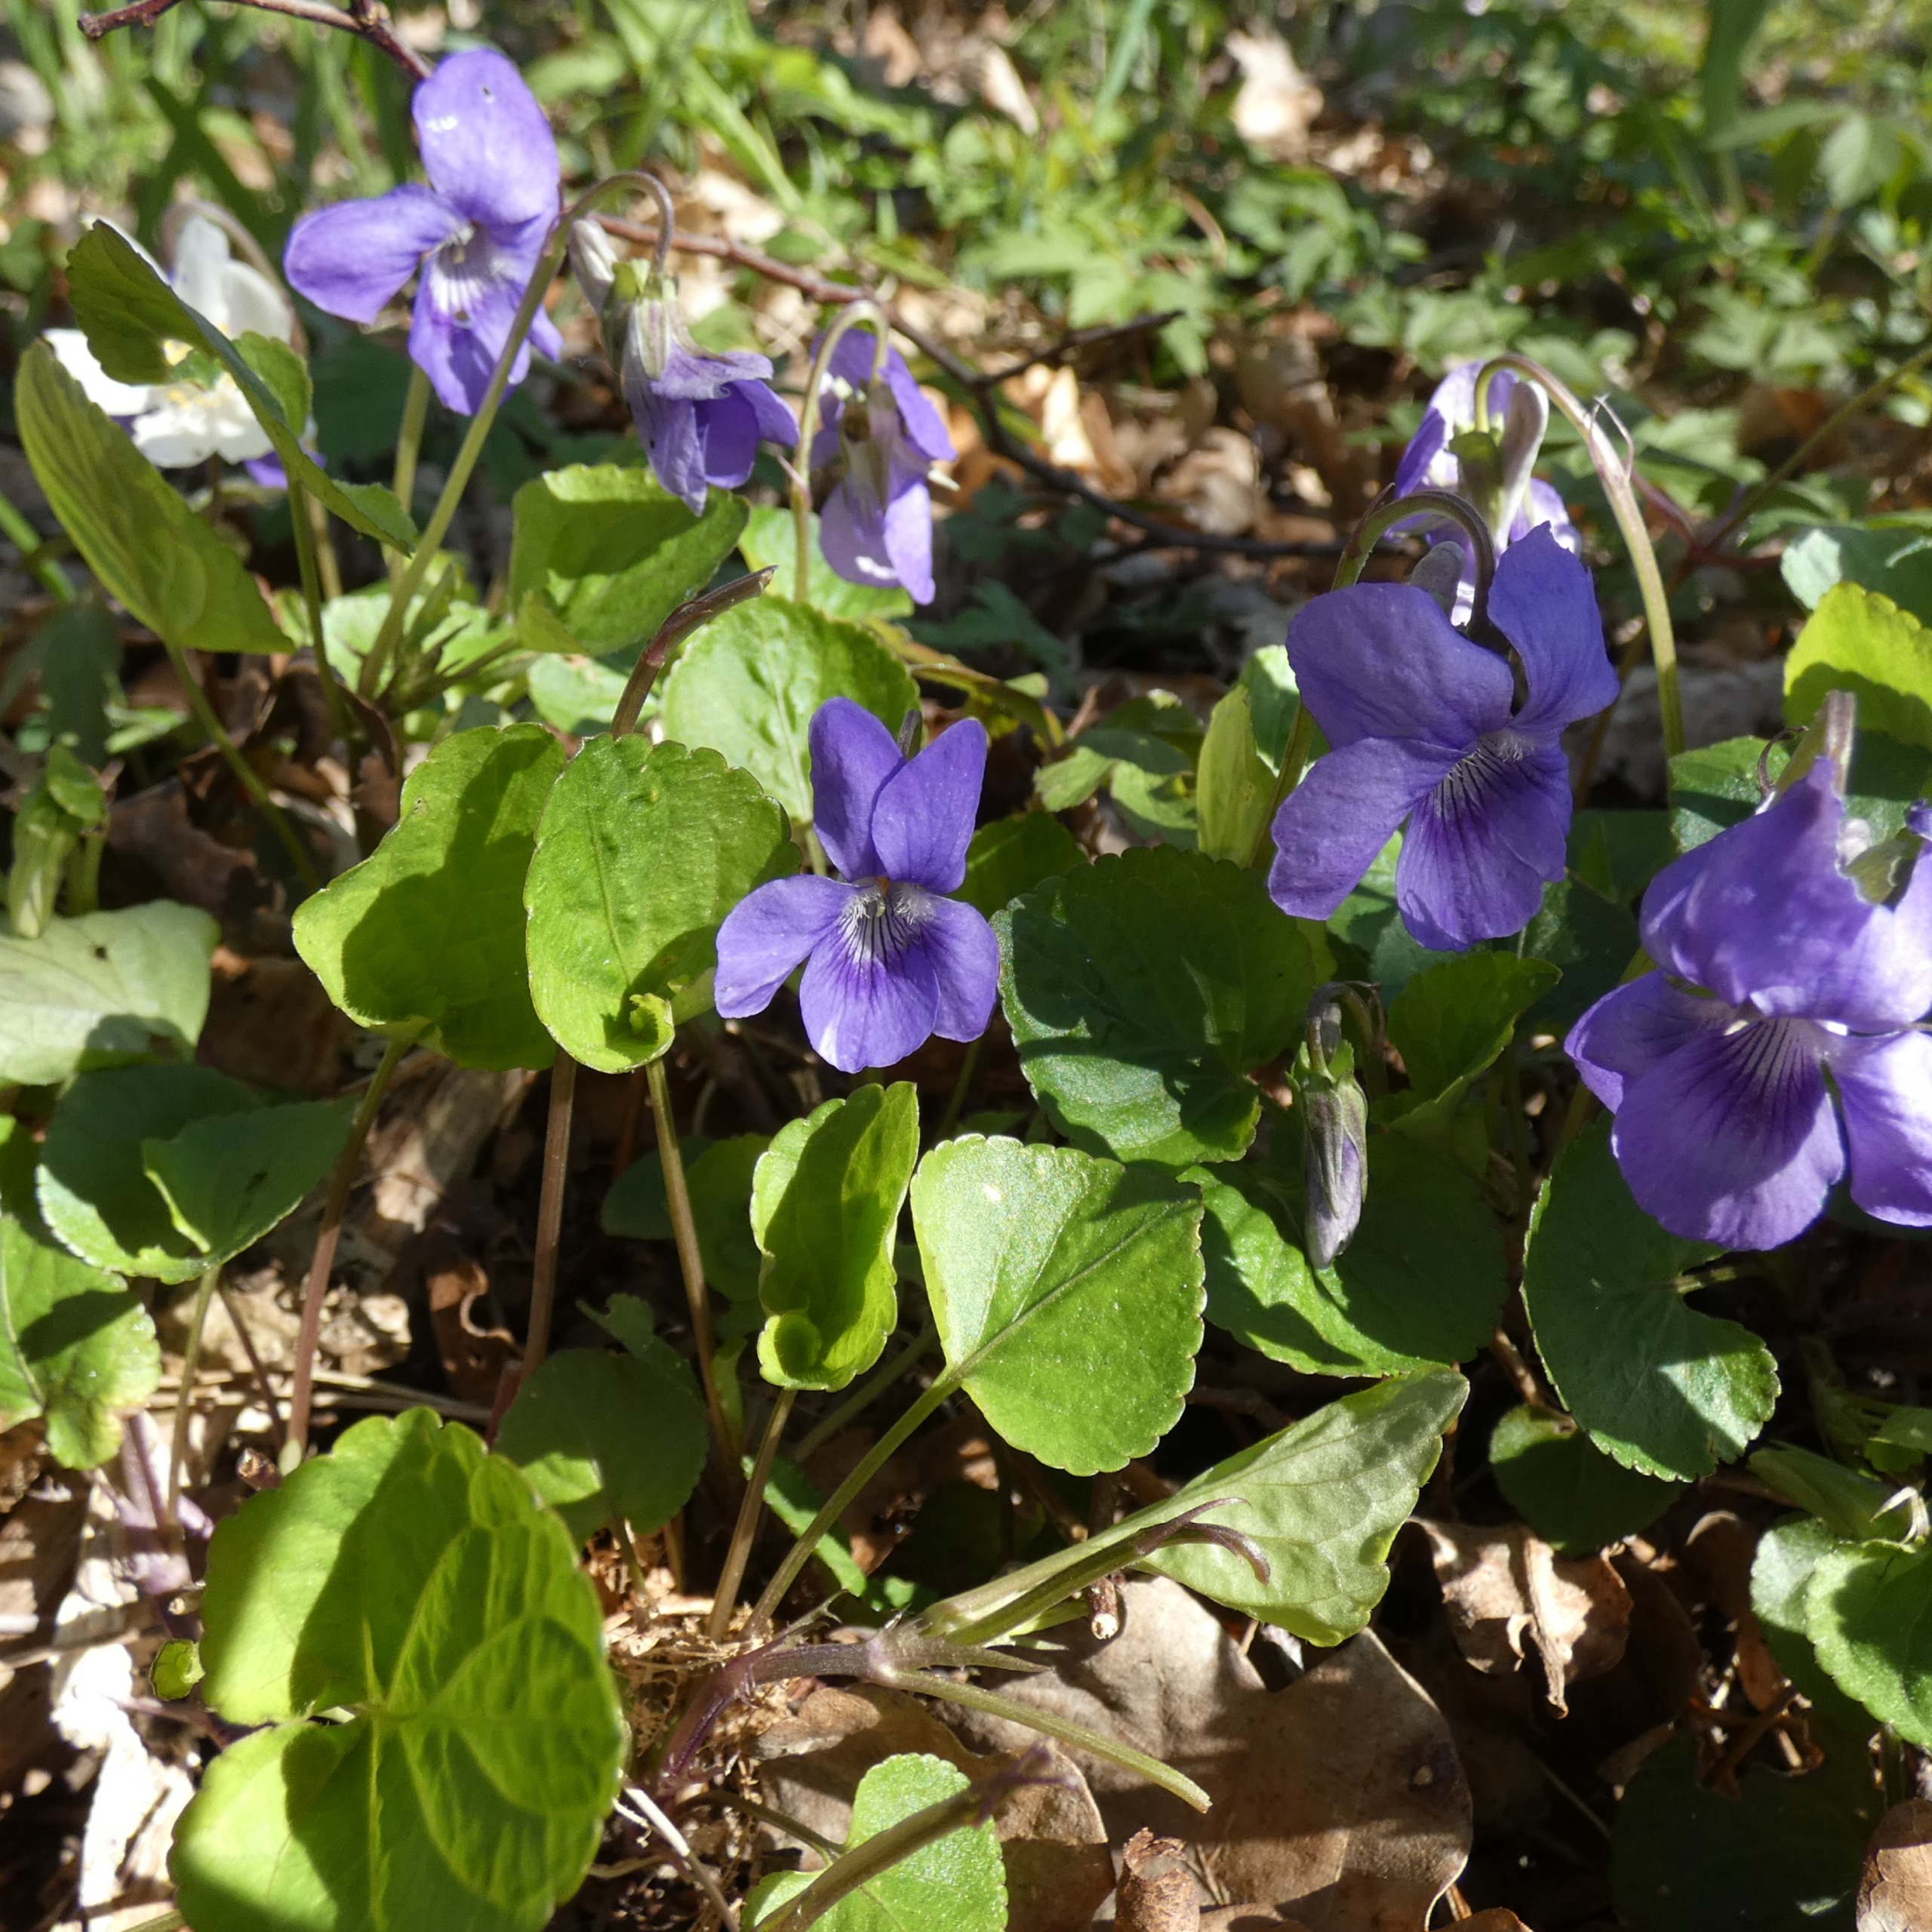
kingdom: Plantae
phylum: Tracheophyta
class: Magnoliopsida
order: Malpighiales
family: Violaceae
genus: Viola
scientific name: Viola riviniana
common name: Krat-viol
